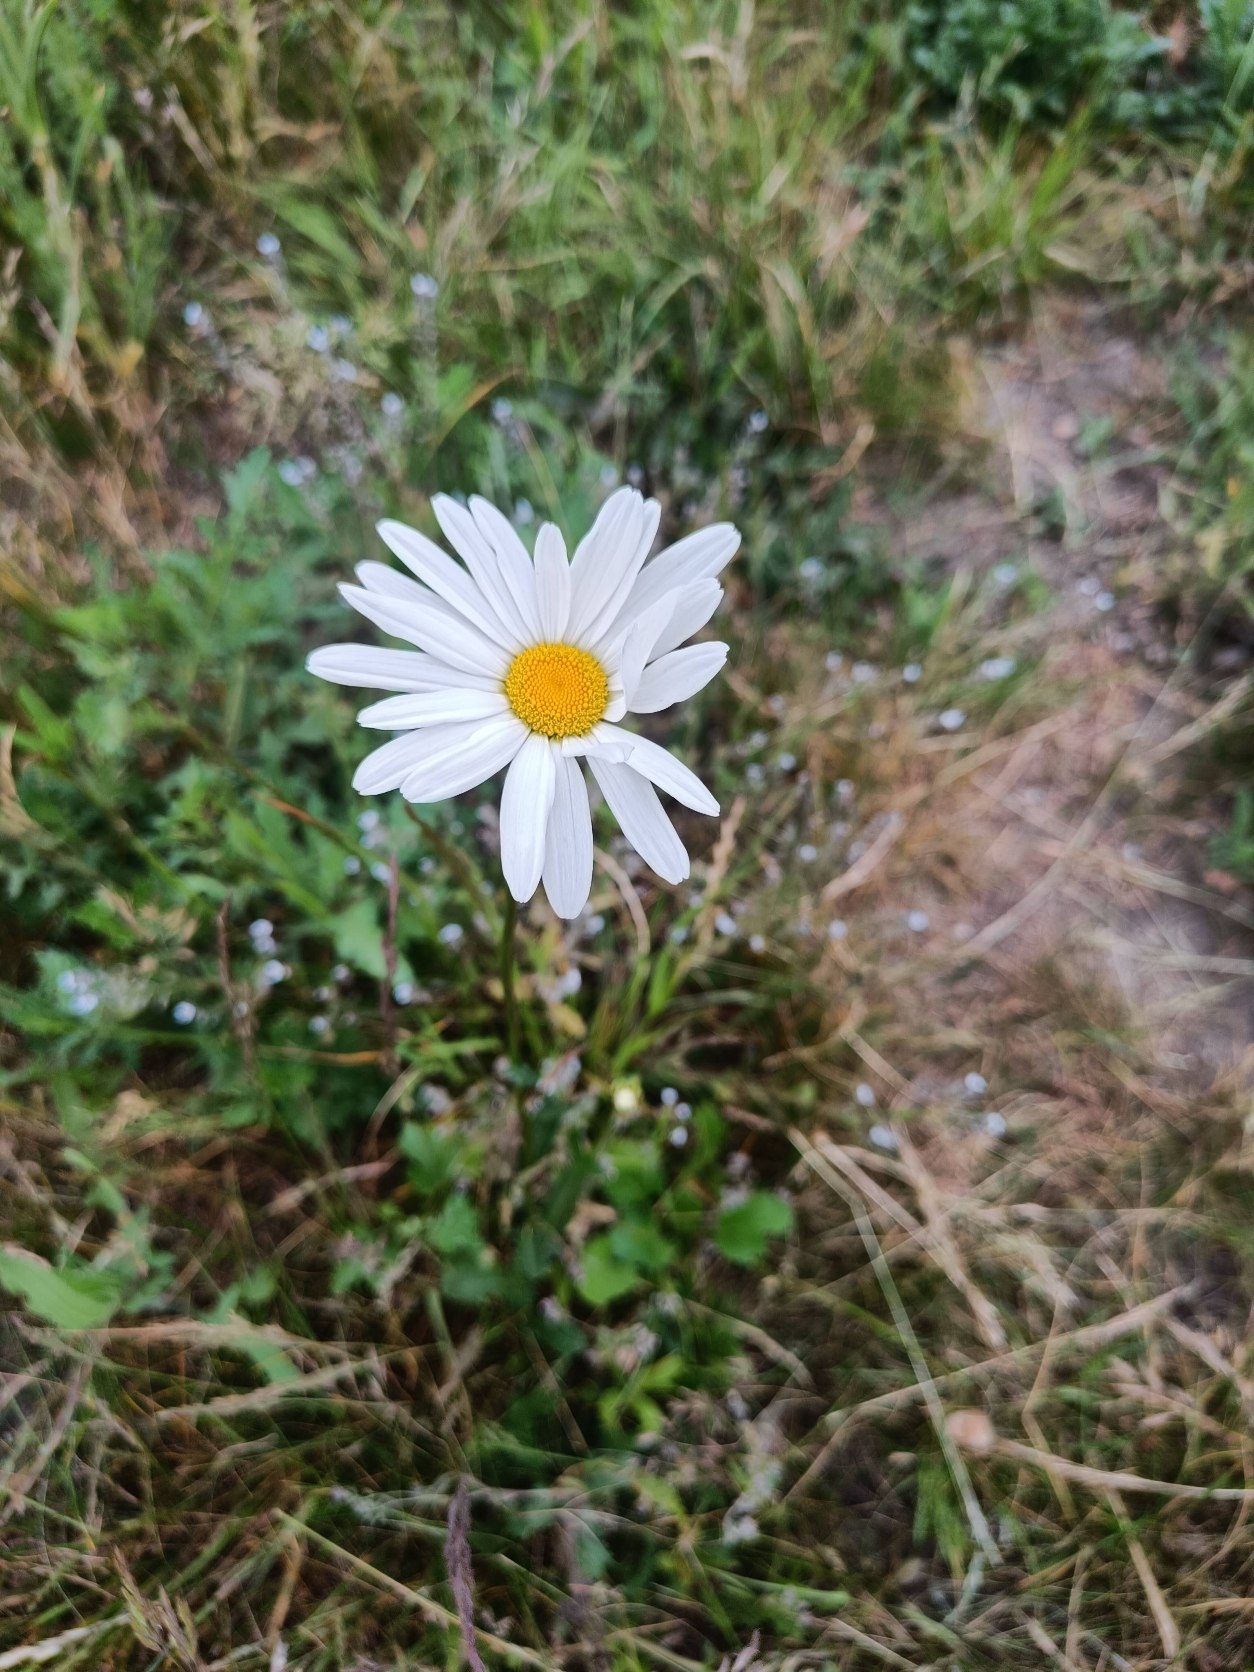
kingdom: Plantae
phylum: Tracheophyta
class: Magnoliopsida
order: Asterales
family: Asteraceae
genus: Leucanthemum
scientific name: Leucanthemum vulgare
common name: Hvid okseøje
